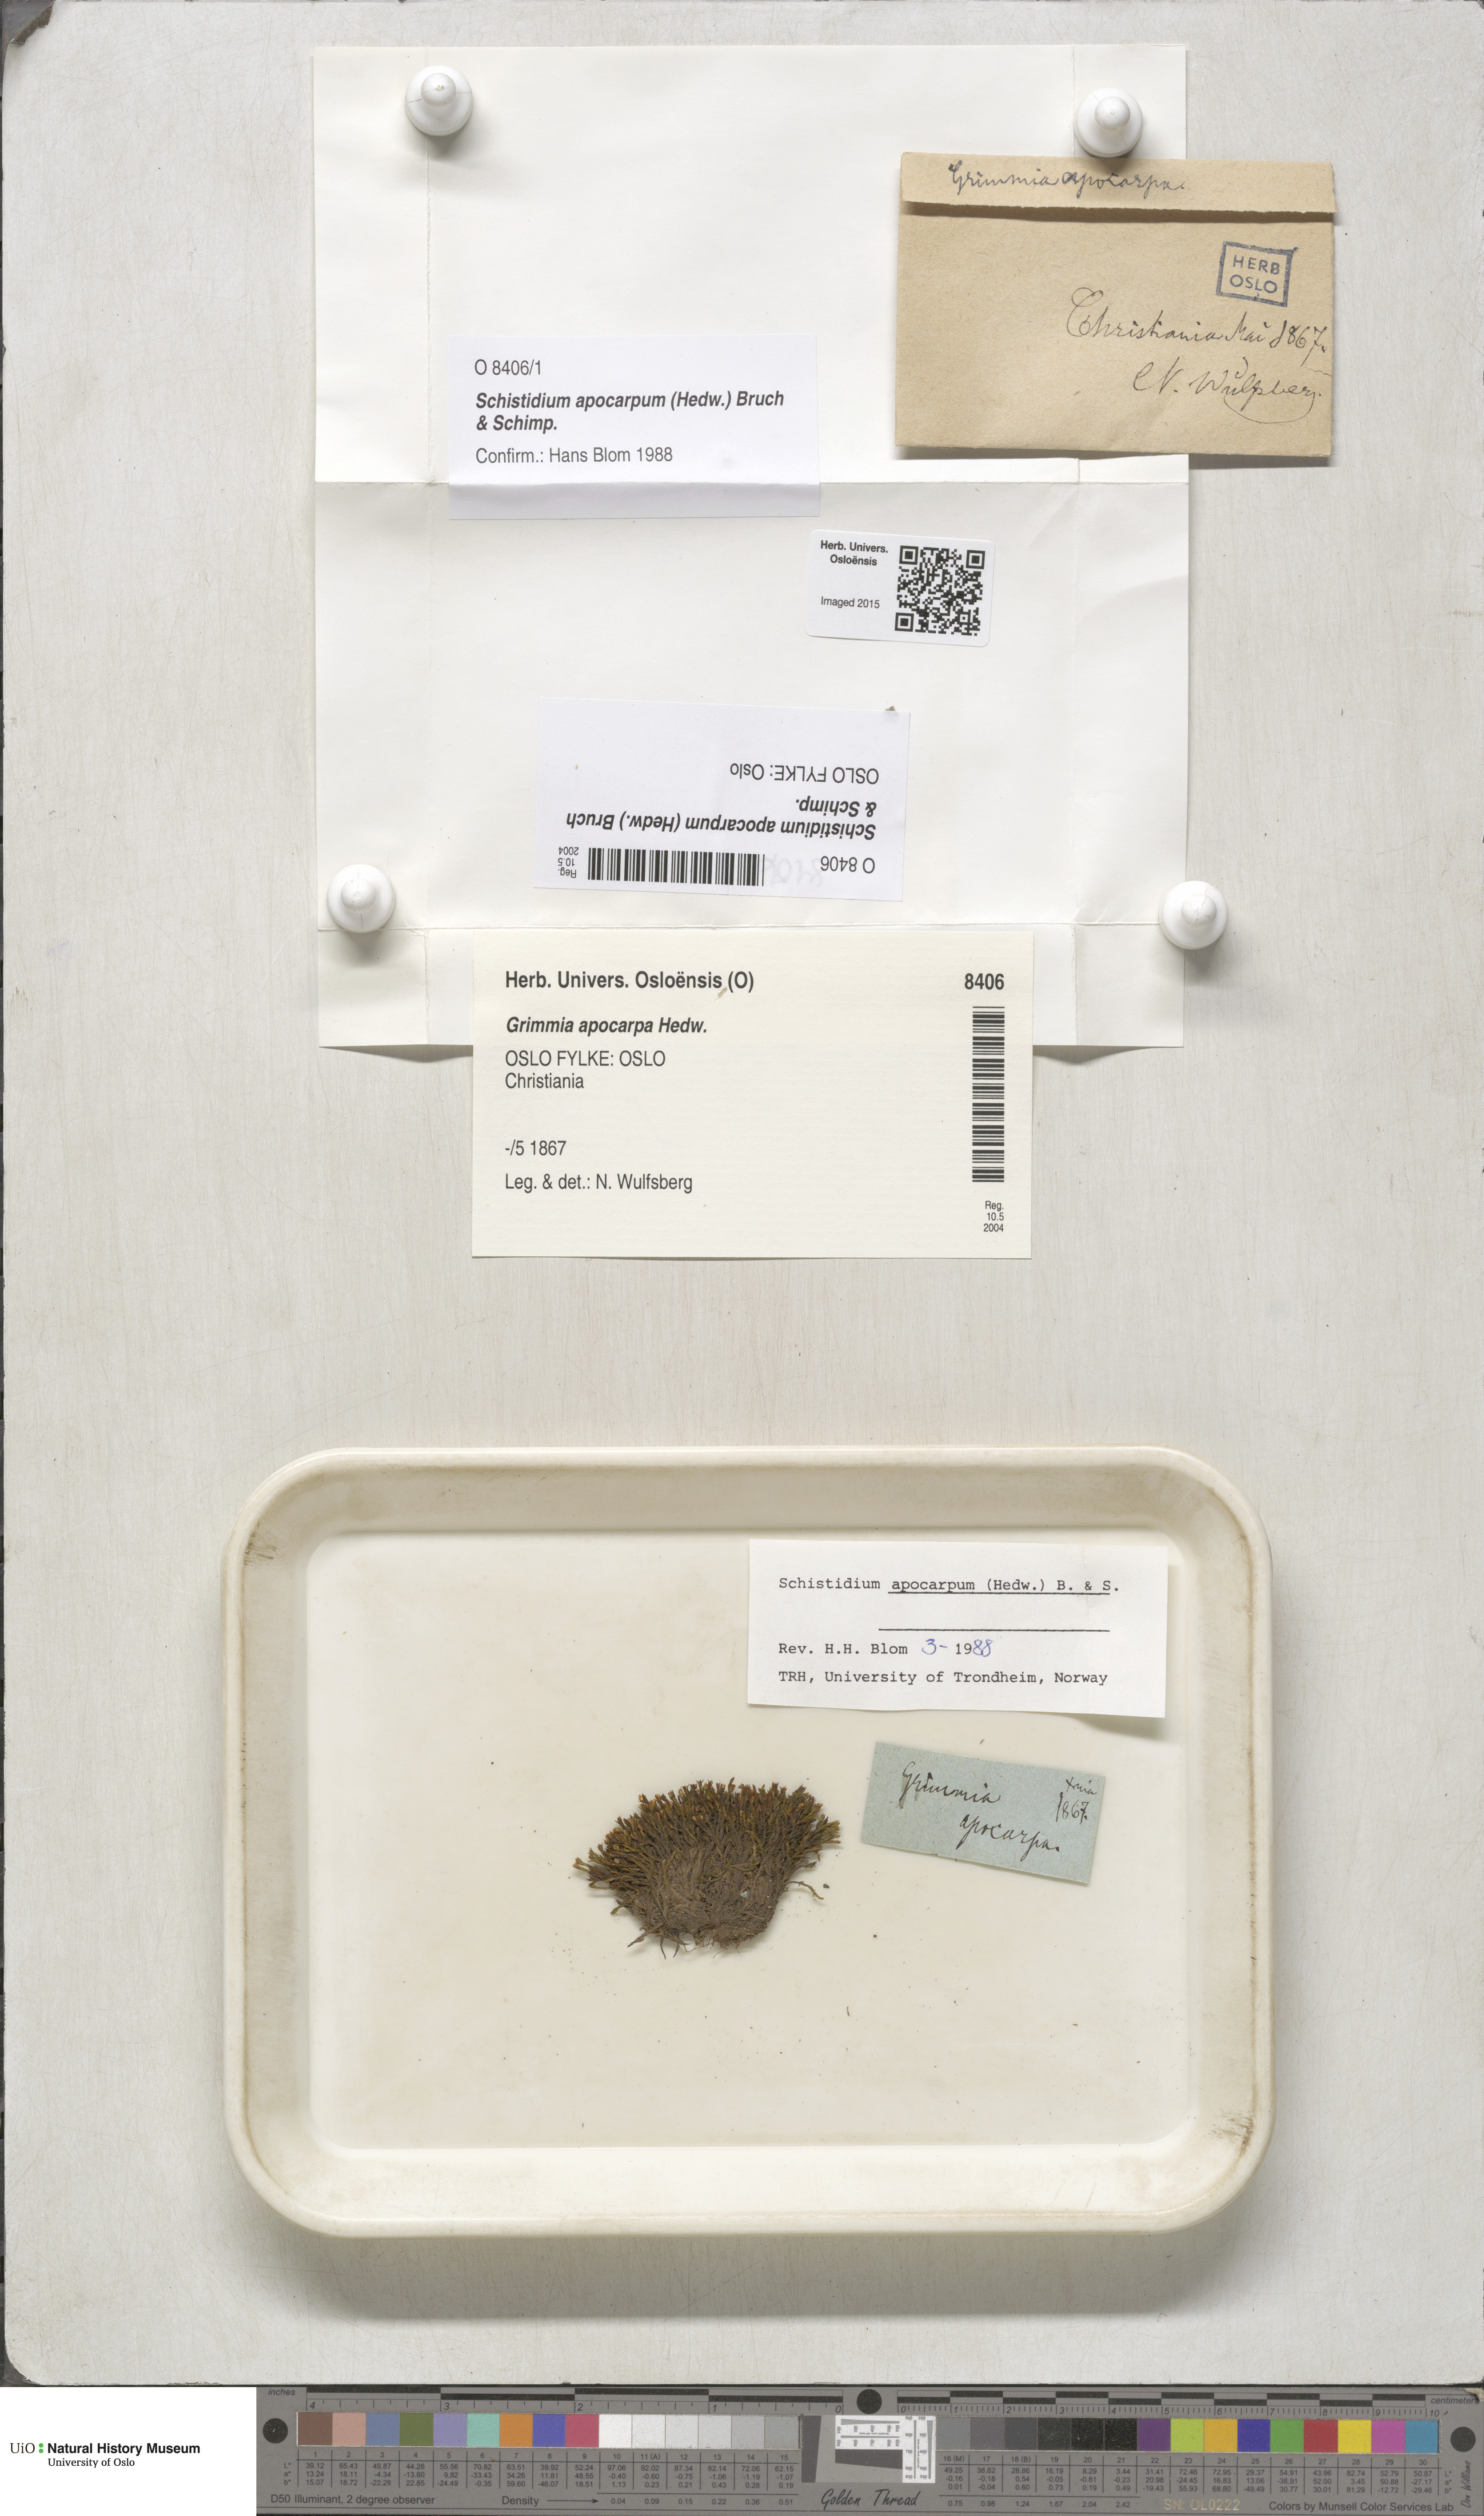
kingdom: Plantae
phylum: Bryophyta
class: Bryopsida
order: Grimmiales
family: Grimmiaceae
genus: Schistidium
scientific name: Schistidium apocarpum
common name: Radiate bloom moss
